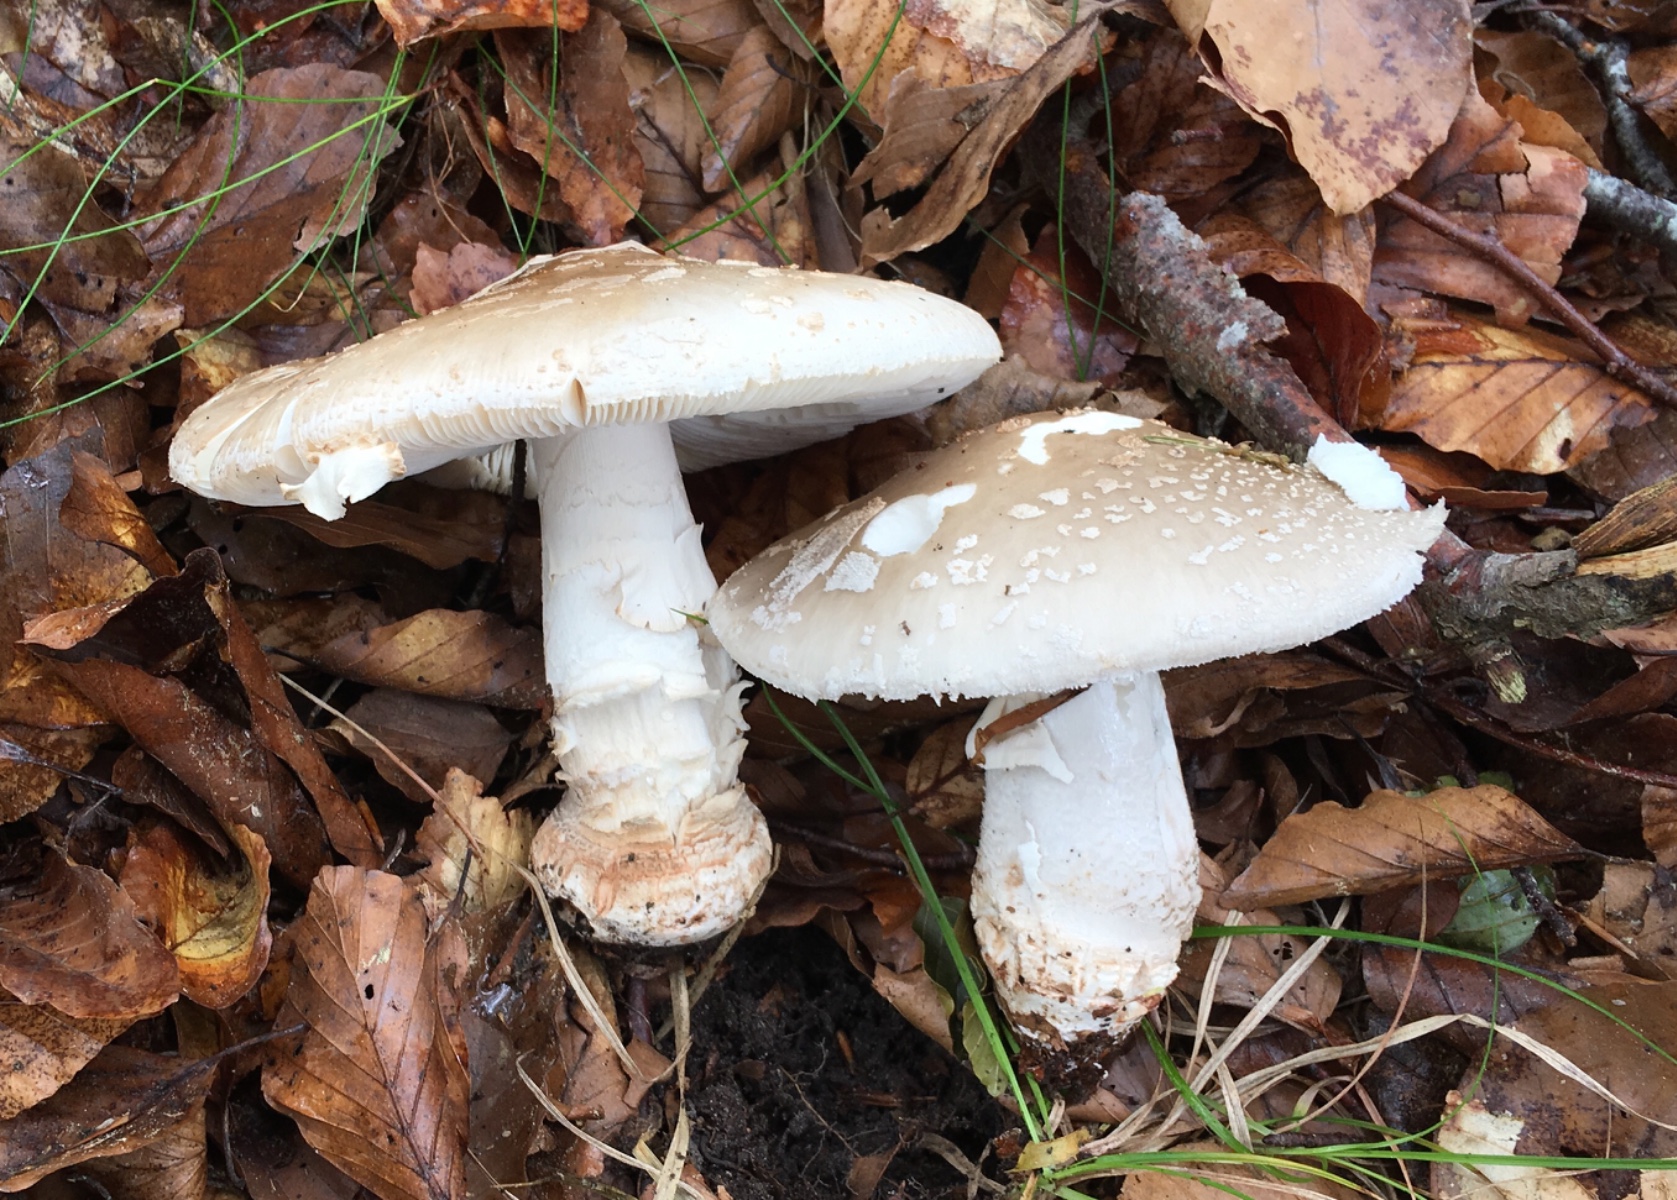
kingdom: Fungi
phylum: Basidiomycota
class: Agaricomycetes
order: Agaricales
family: Amanitaceae
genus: Amanita
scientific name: Amanita
